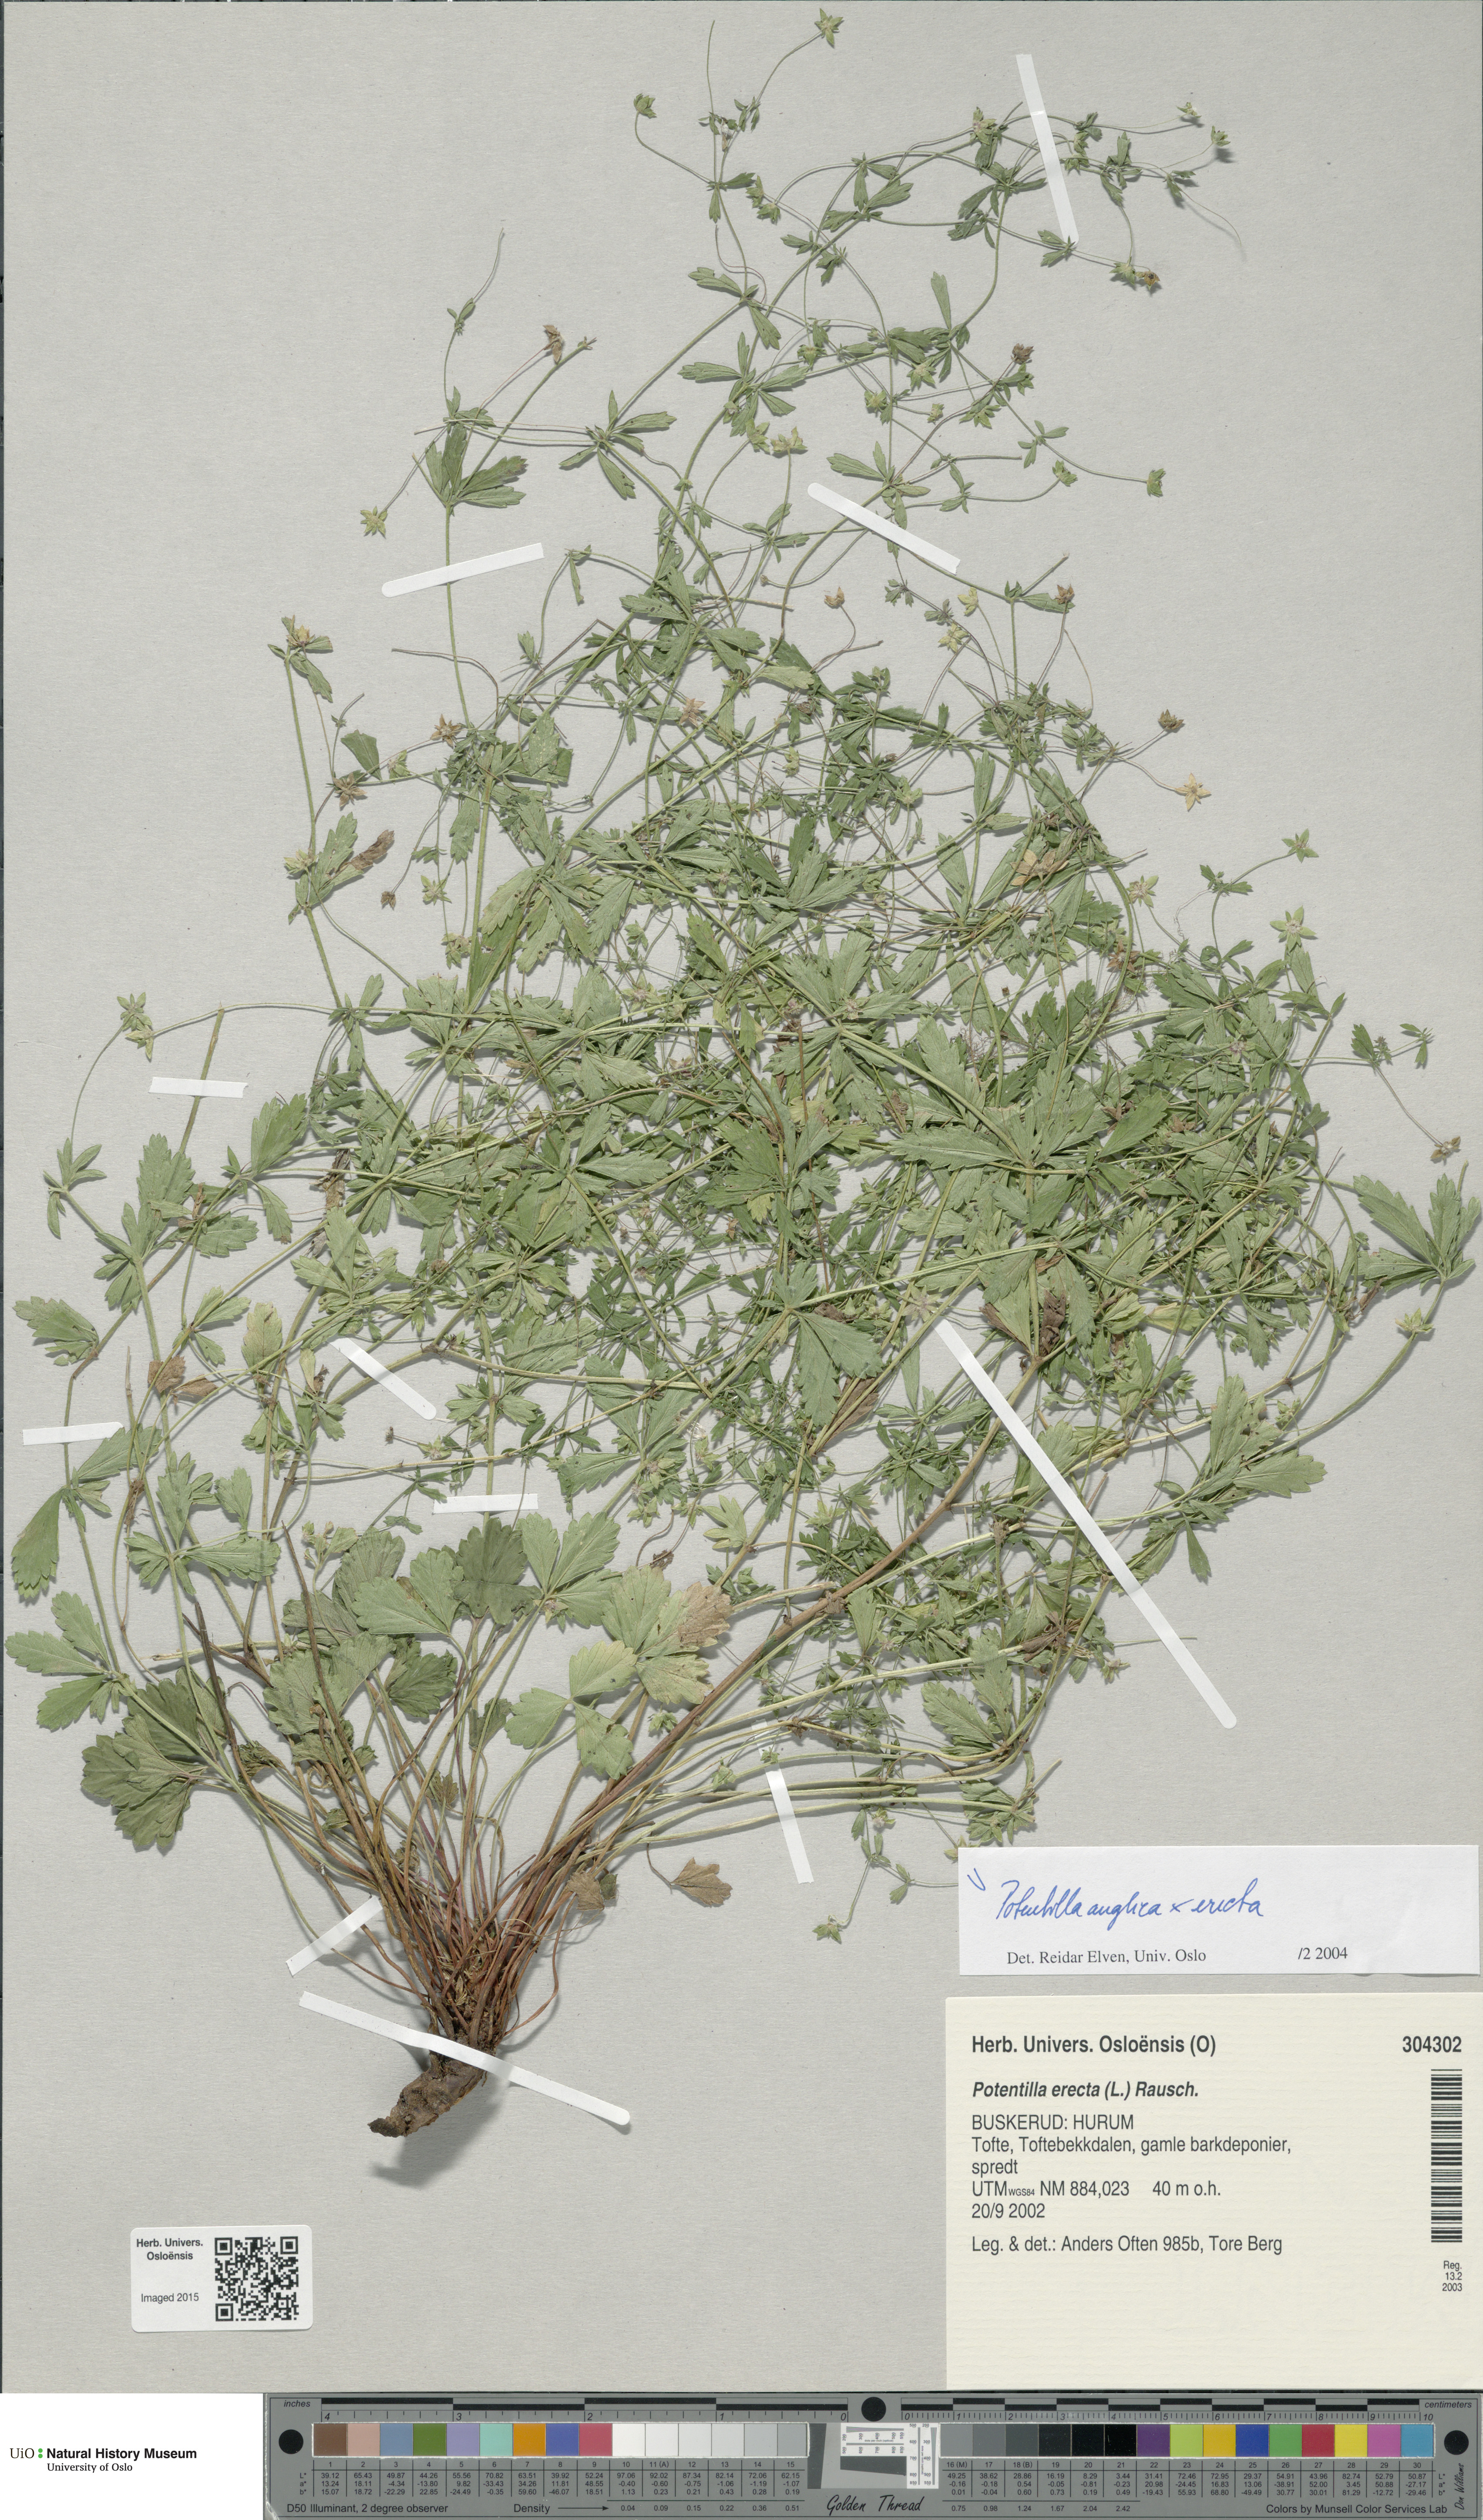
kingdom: Plantae
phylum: Tracheophyta
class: Magnoliopsida
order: Rosales
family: Rosaceae
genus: Potentilla
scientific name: Potentilla
